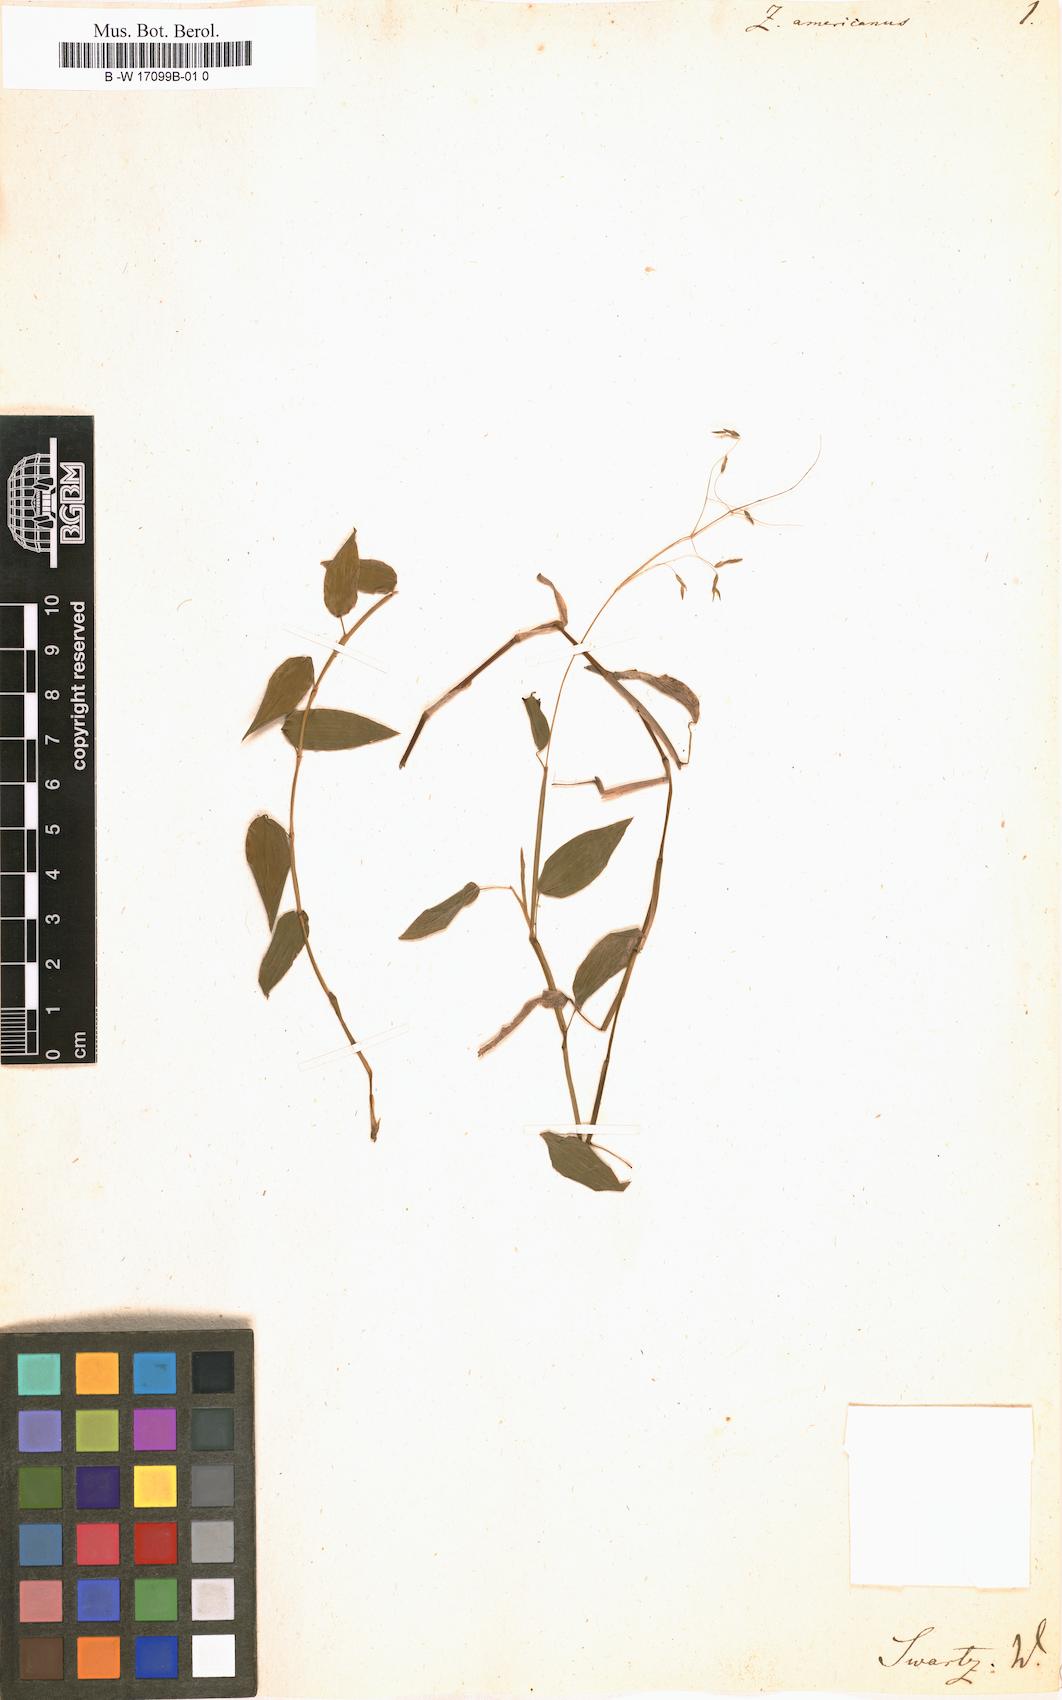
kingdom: Plantae
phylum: Tracheophyta
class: Liliopsida
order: Poales
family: Poaceae
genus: Zeugites
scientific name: Zeugites americanus
